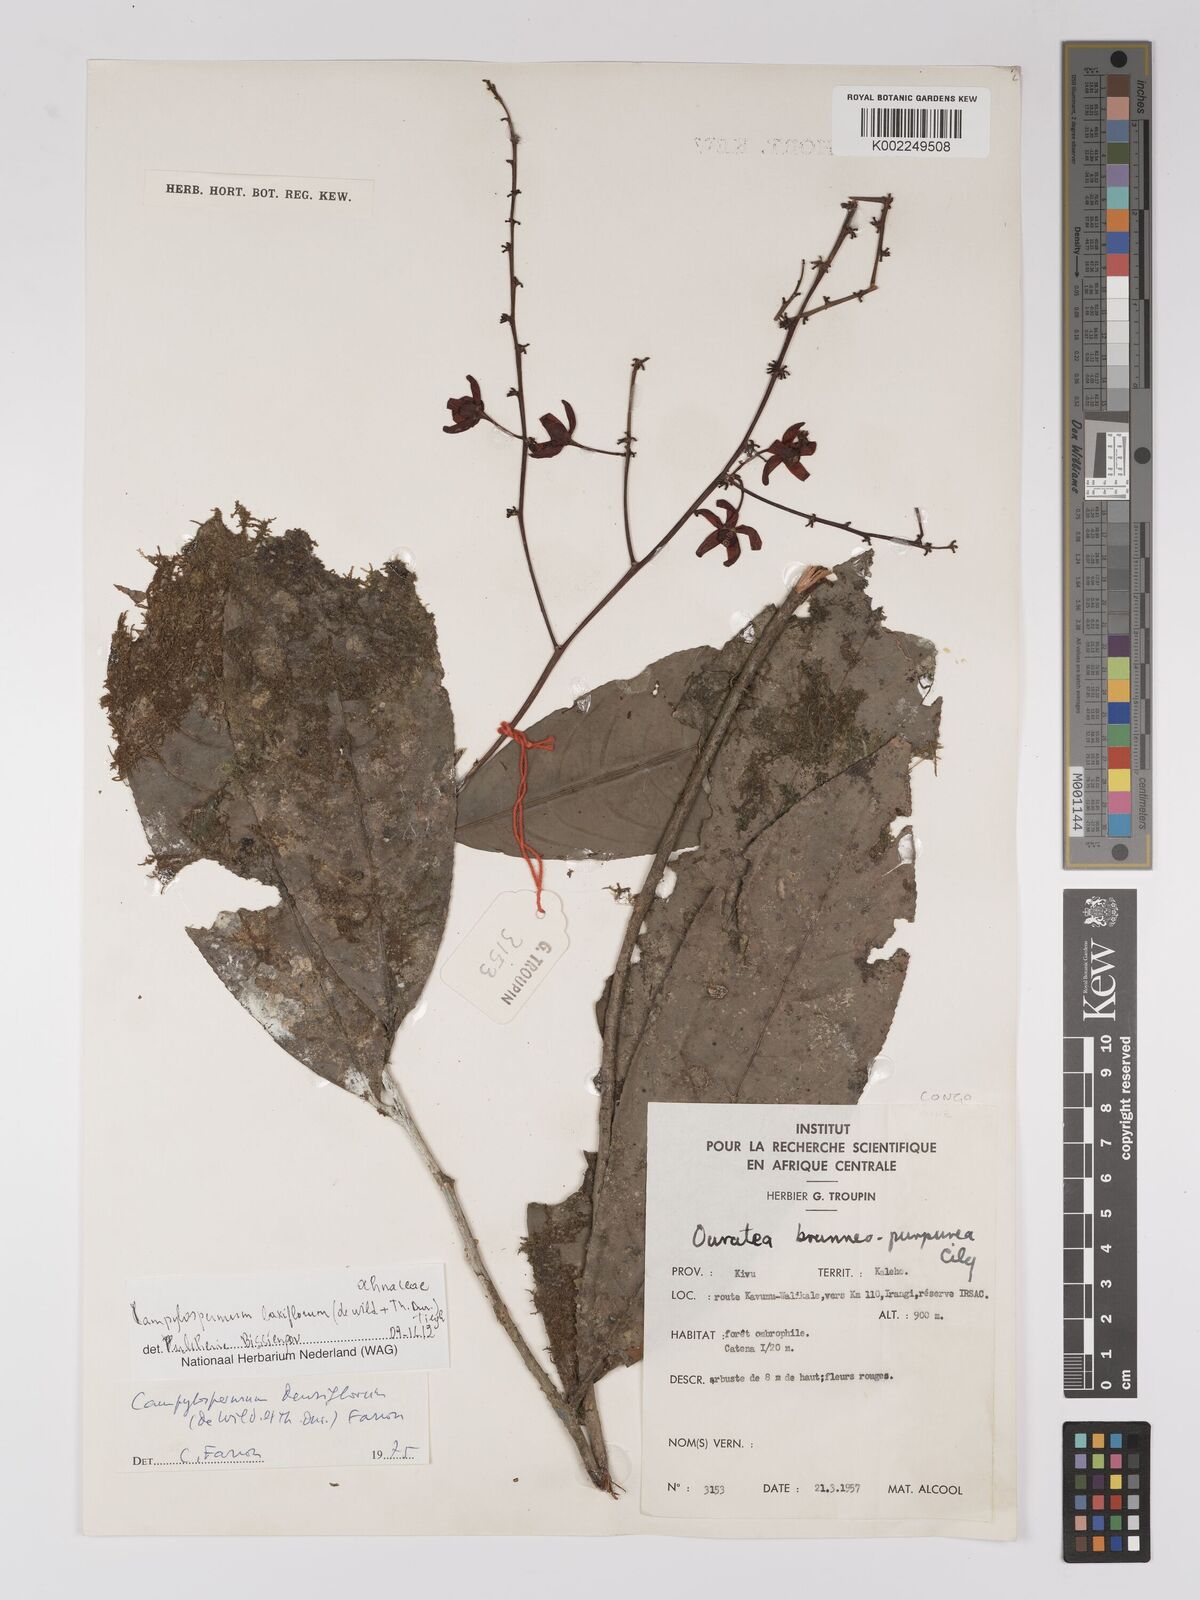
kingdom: Plantae
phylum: Tracheophyta
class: Magnoliopsida
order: Malpighiales
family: Ochnaceae
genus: Campylospermum
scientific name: Campylospermum laxiflorum
